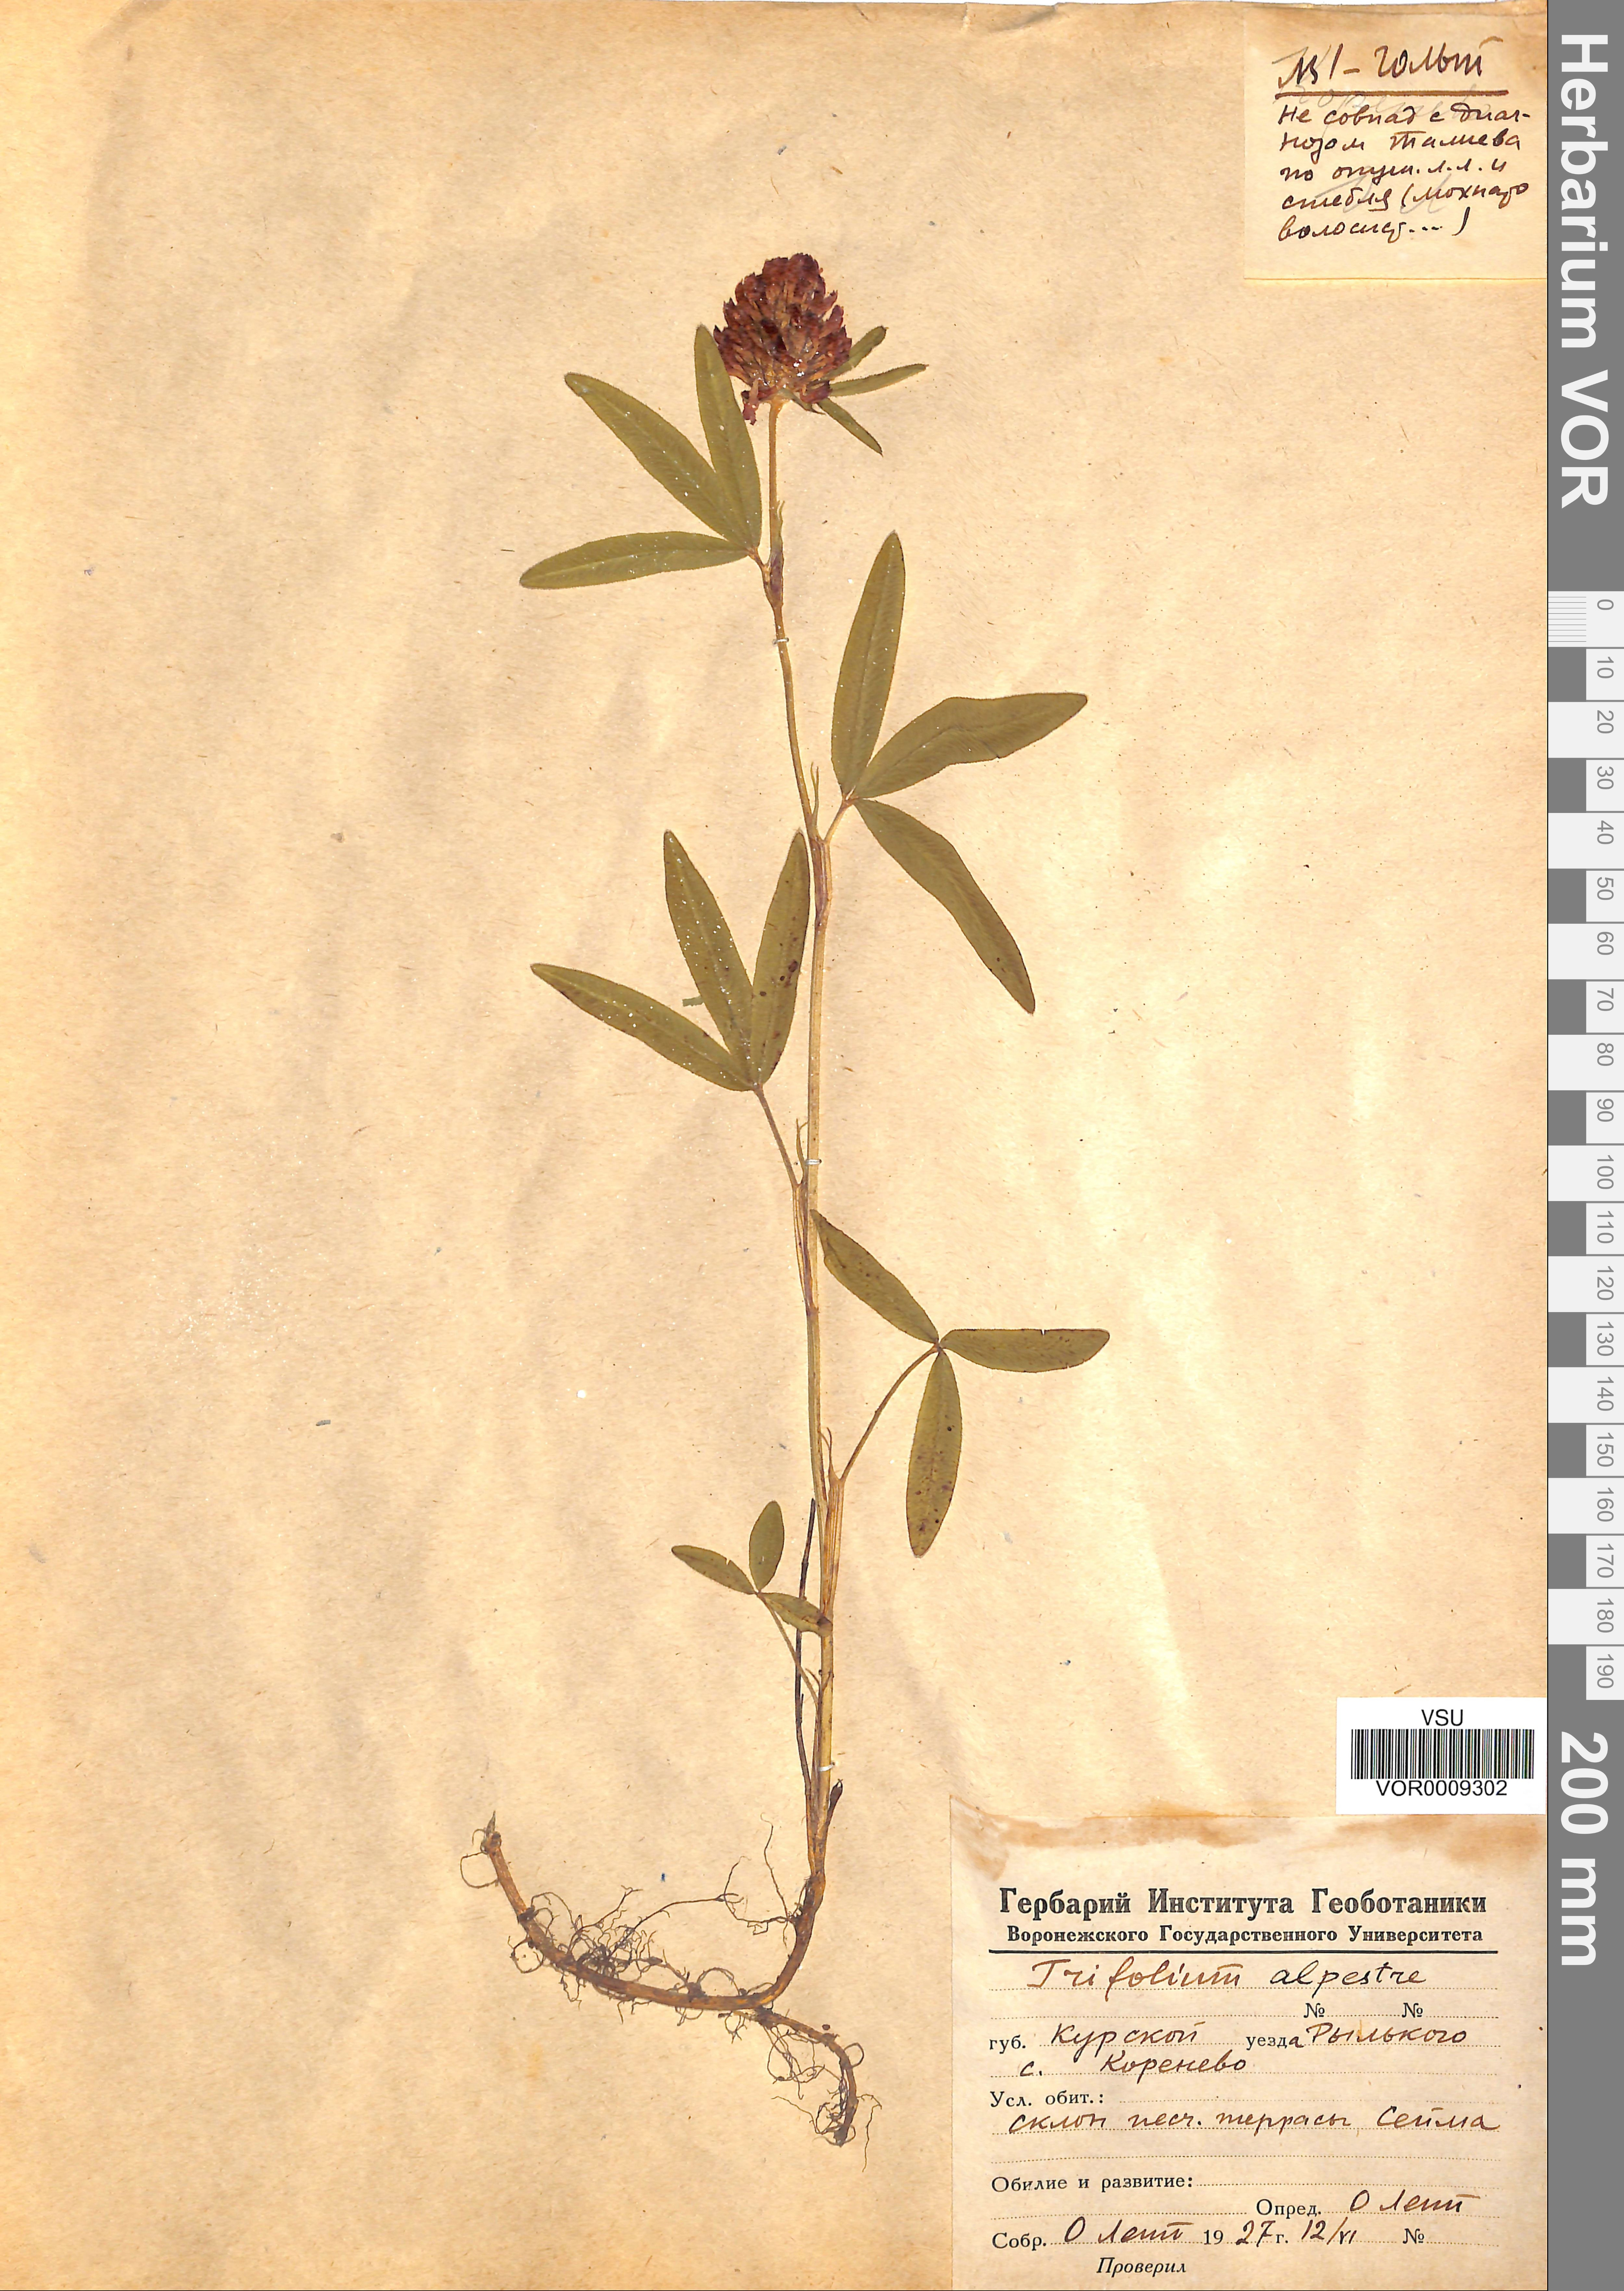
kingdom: Plantae
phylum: Tracheophyta
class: Magnoliopsida
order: Fabales
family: Fabaceae
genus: Trifolium
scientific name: Trifolium alpestre
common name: Owl-head clover
